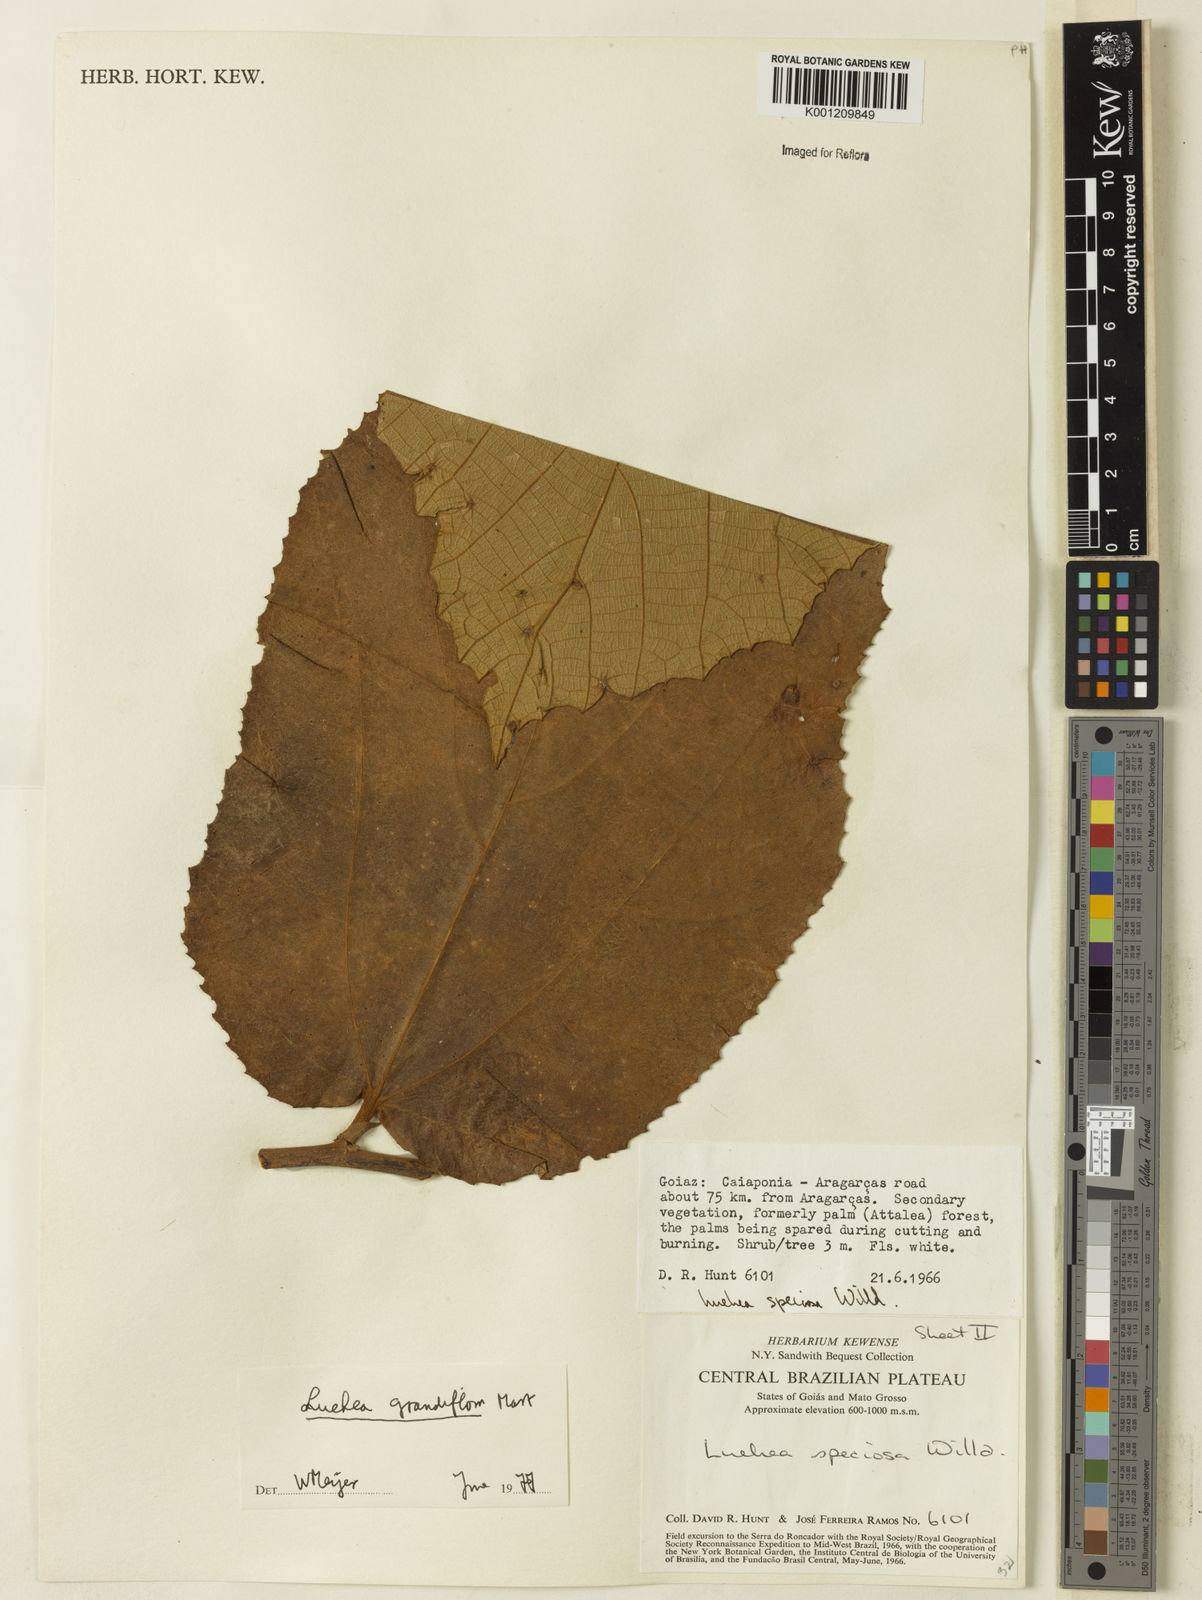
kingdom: Plantae
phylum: Tracheophyta
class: Magnoliopsida
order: Malvales
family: Malvaceae
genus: Luehea
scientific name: Luehea grandiflora
